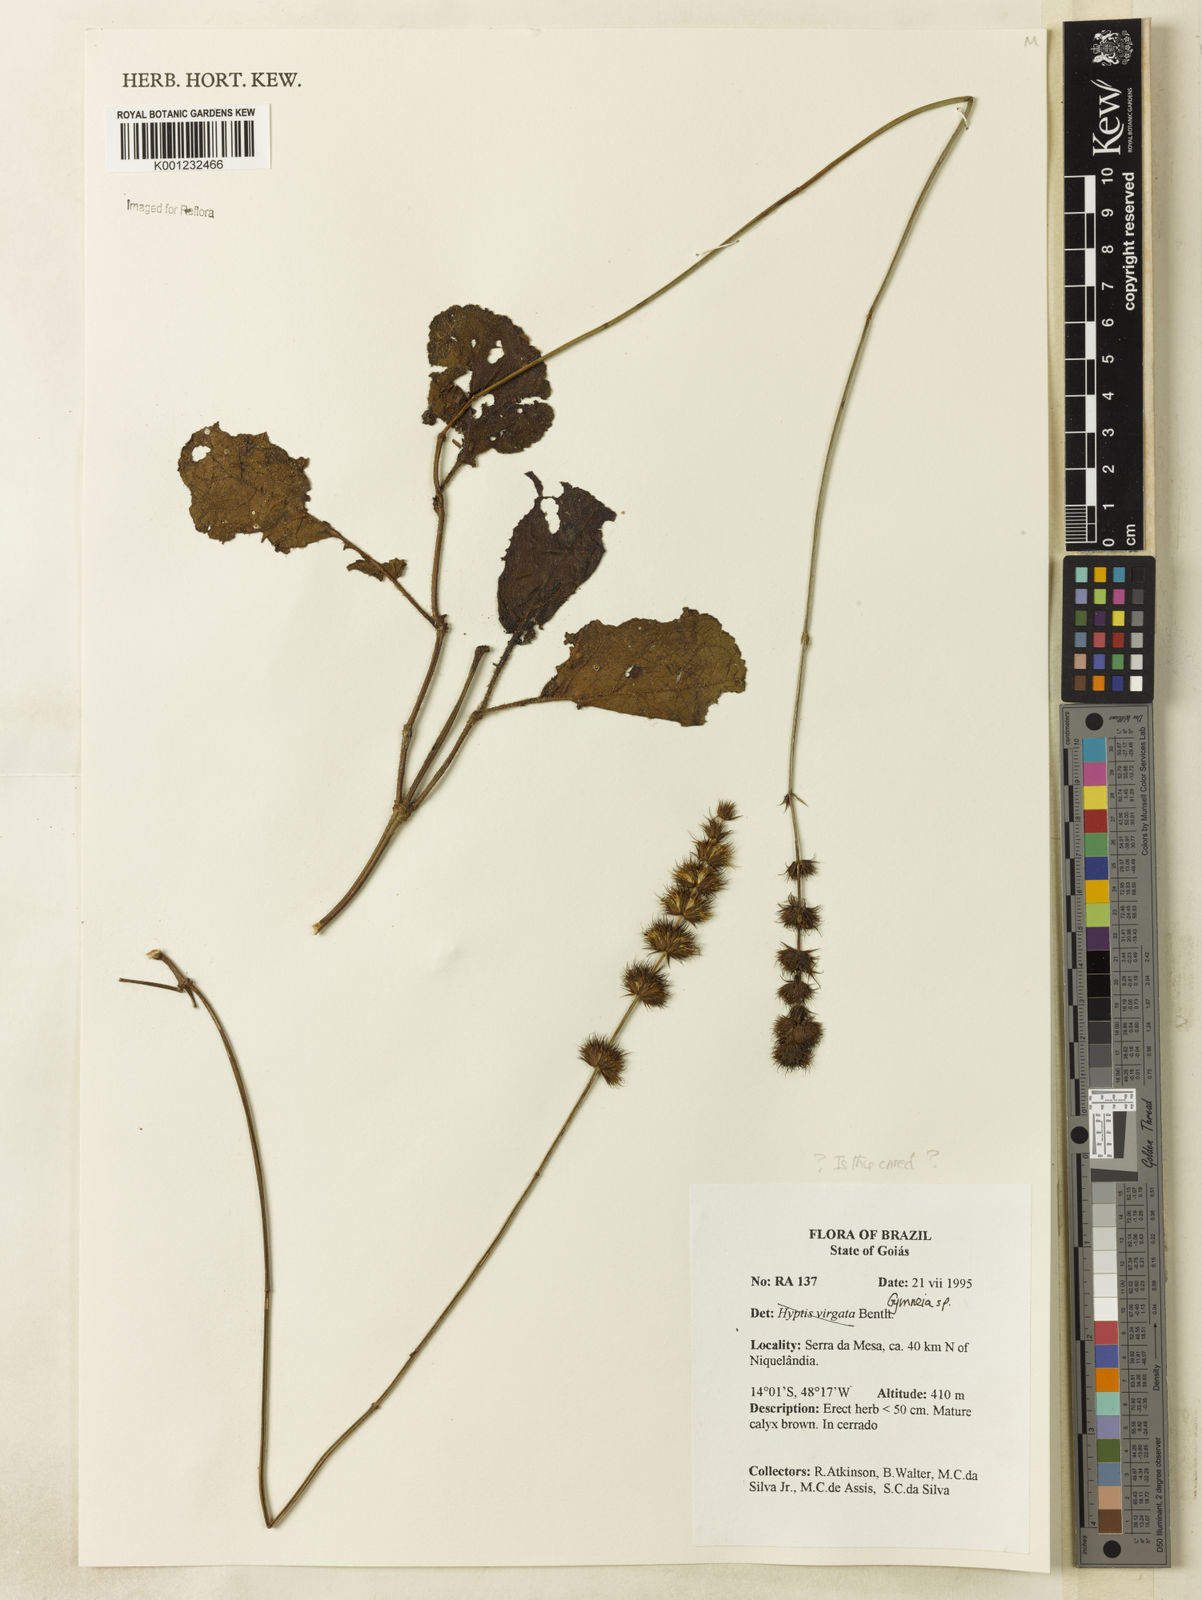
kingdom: Plantae
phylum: Tracheophyta
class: Magnoliopsida
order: Lamiales
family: Lamiaceae
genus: Gymneia
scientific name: Gymneia
